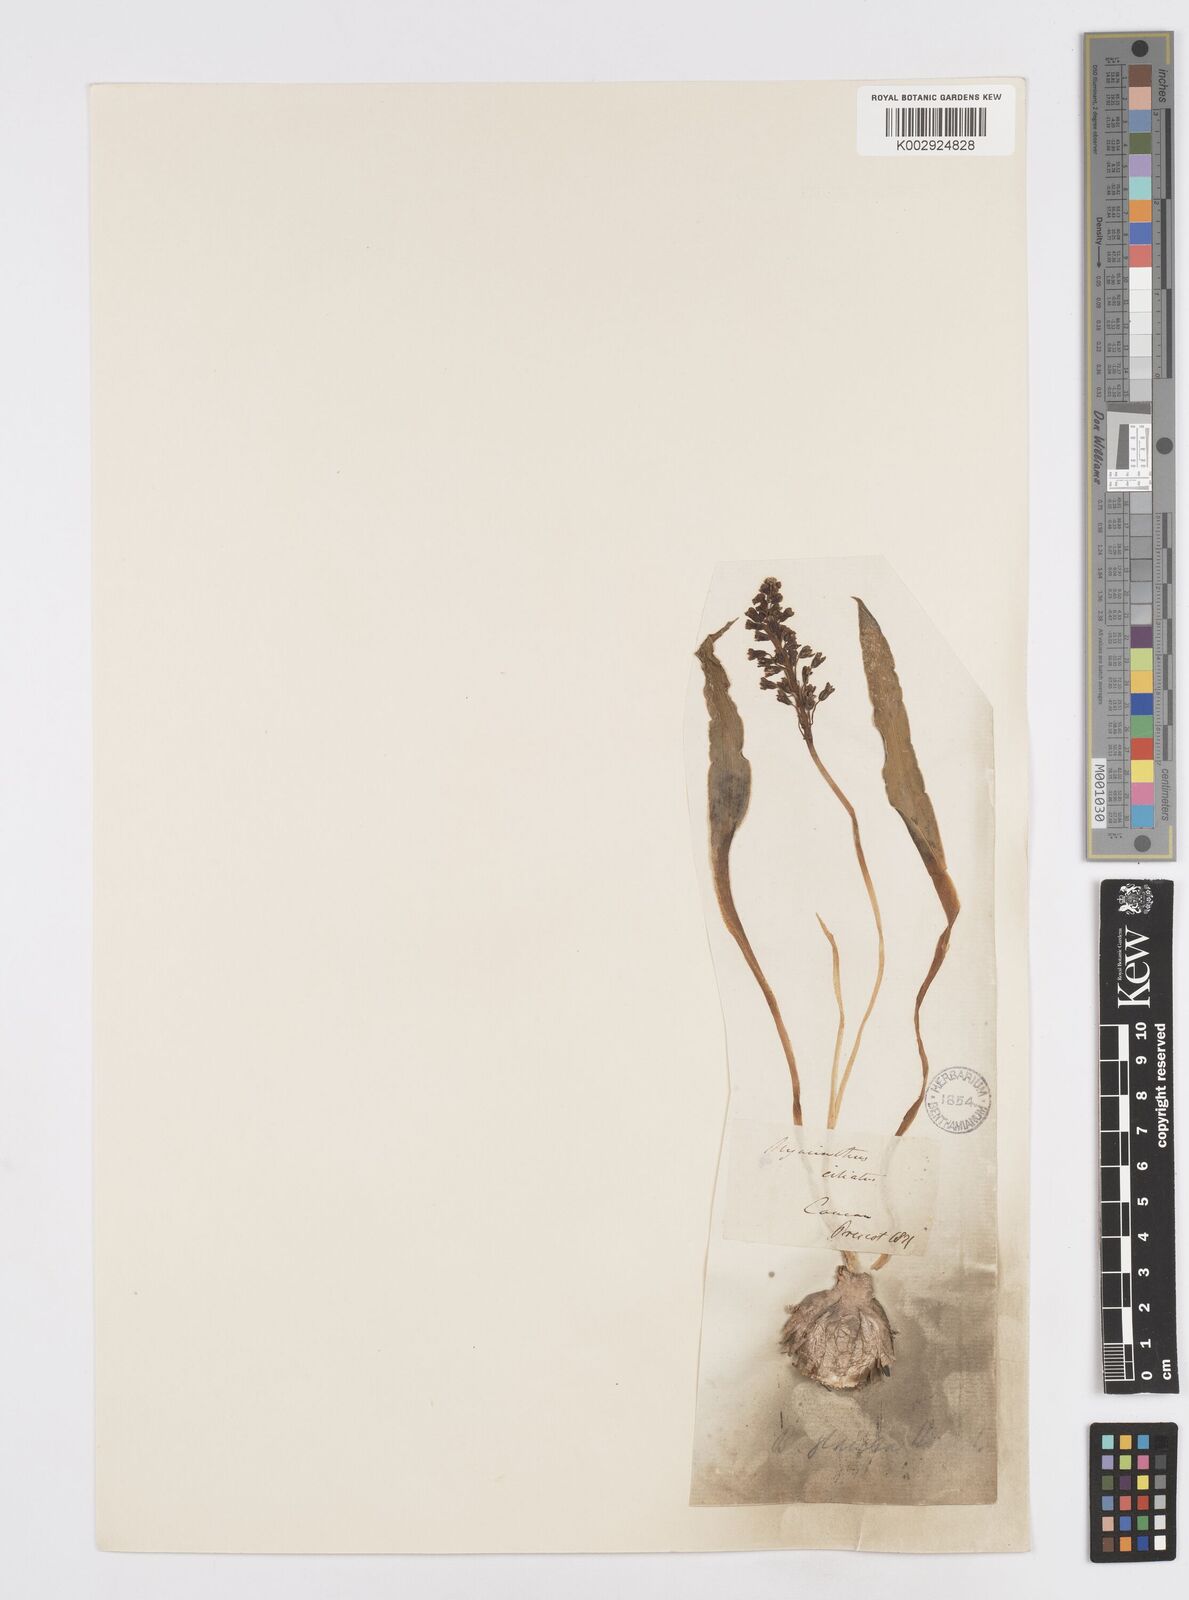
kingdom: Plantae
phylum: Tracheophyta
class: Liliopsida
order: Asparagales
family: Asparagaceae
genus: Bellevalia
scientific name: Bellevalia
